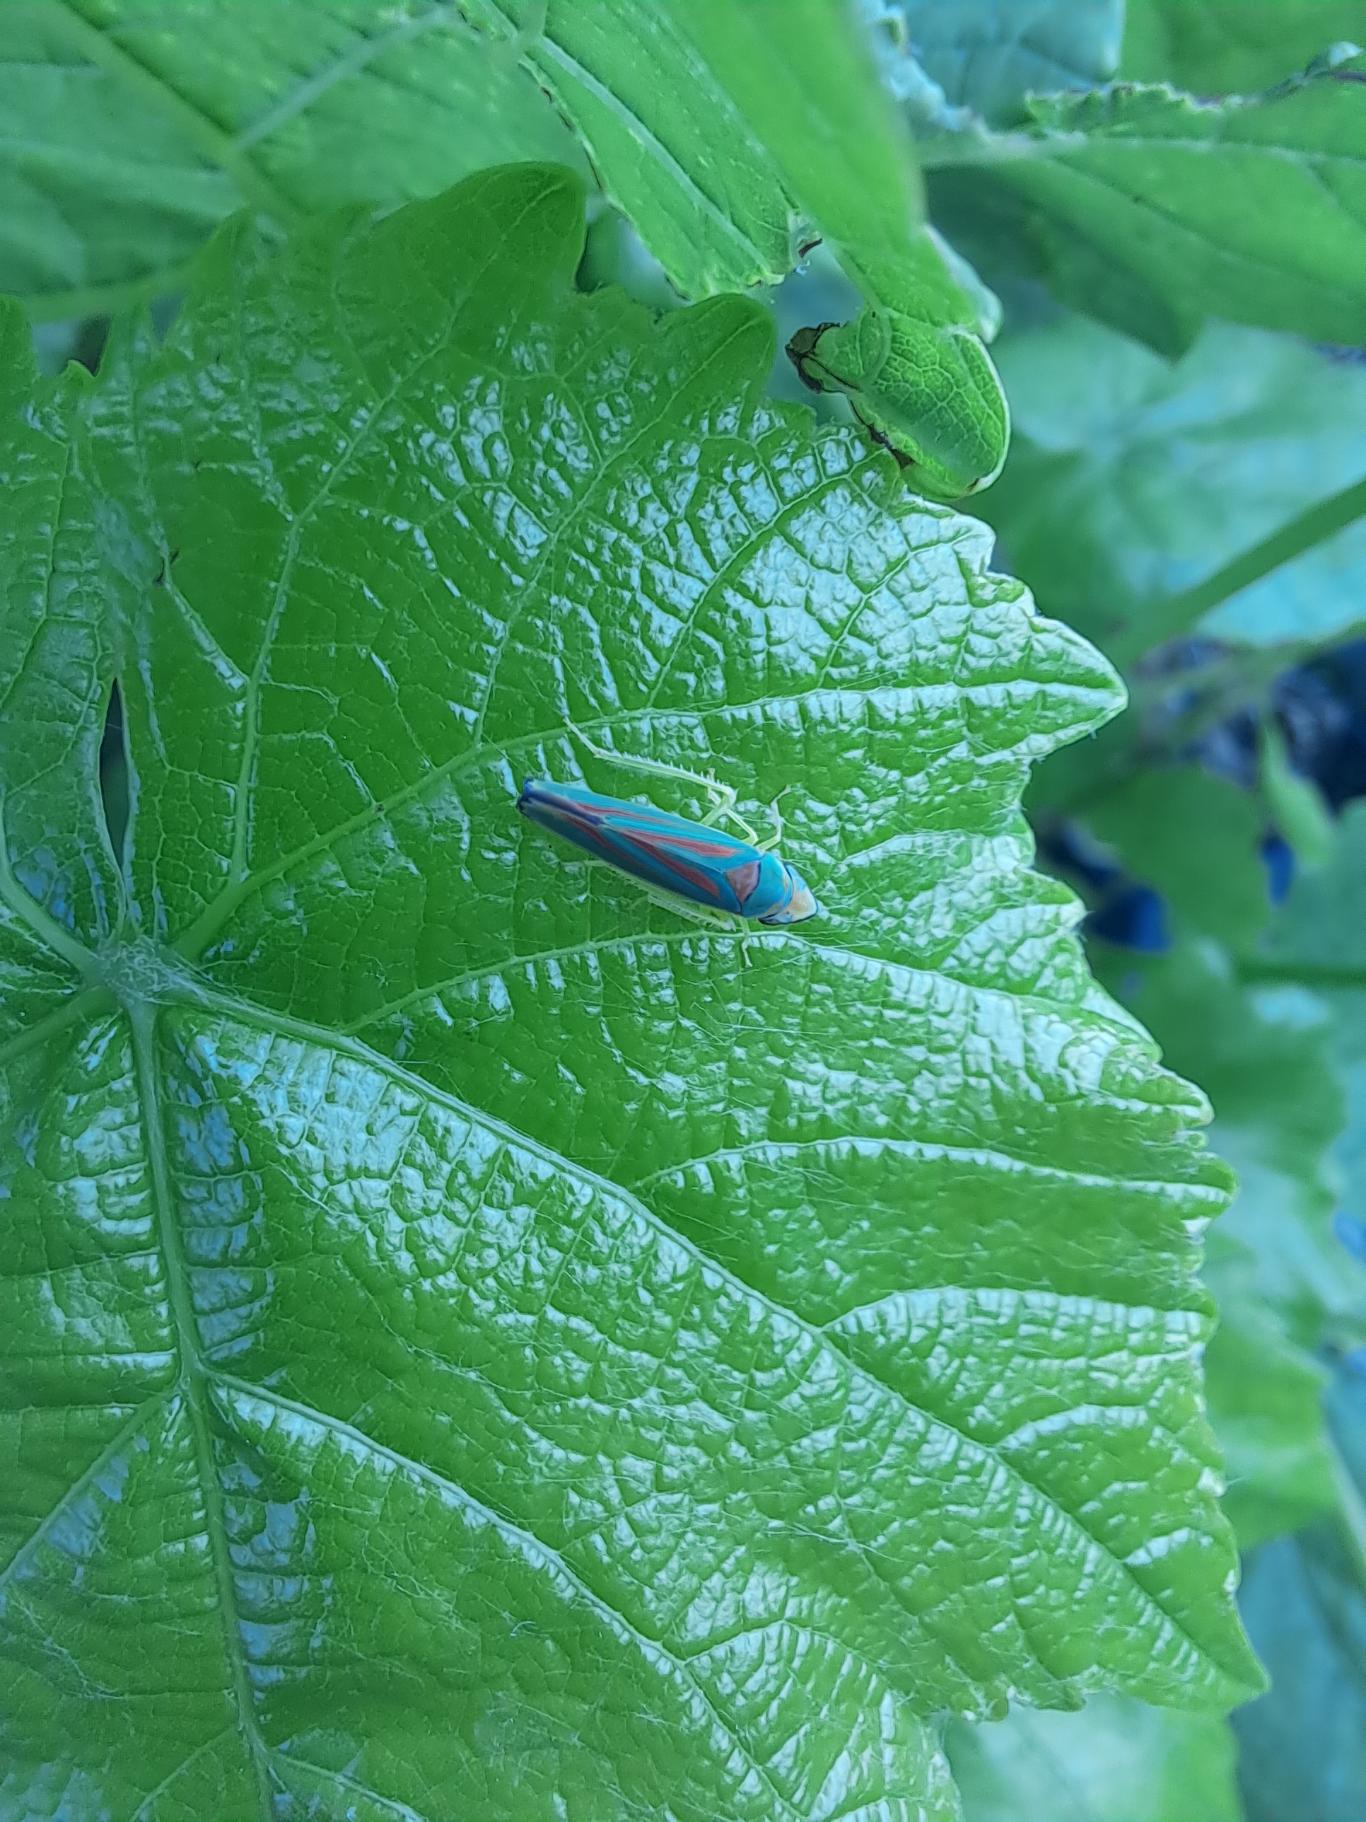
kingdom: Animalia
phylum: Arthropoda
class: Insecta
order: Hemiptera
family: Cicadellidae
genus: Graphocephala
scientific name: Graphocephala fennahi
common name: Rododendroncikade
